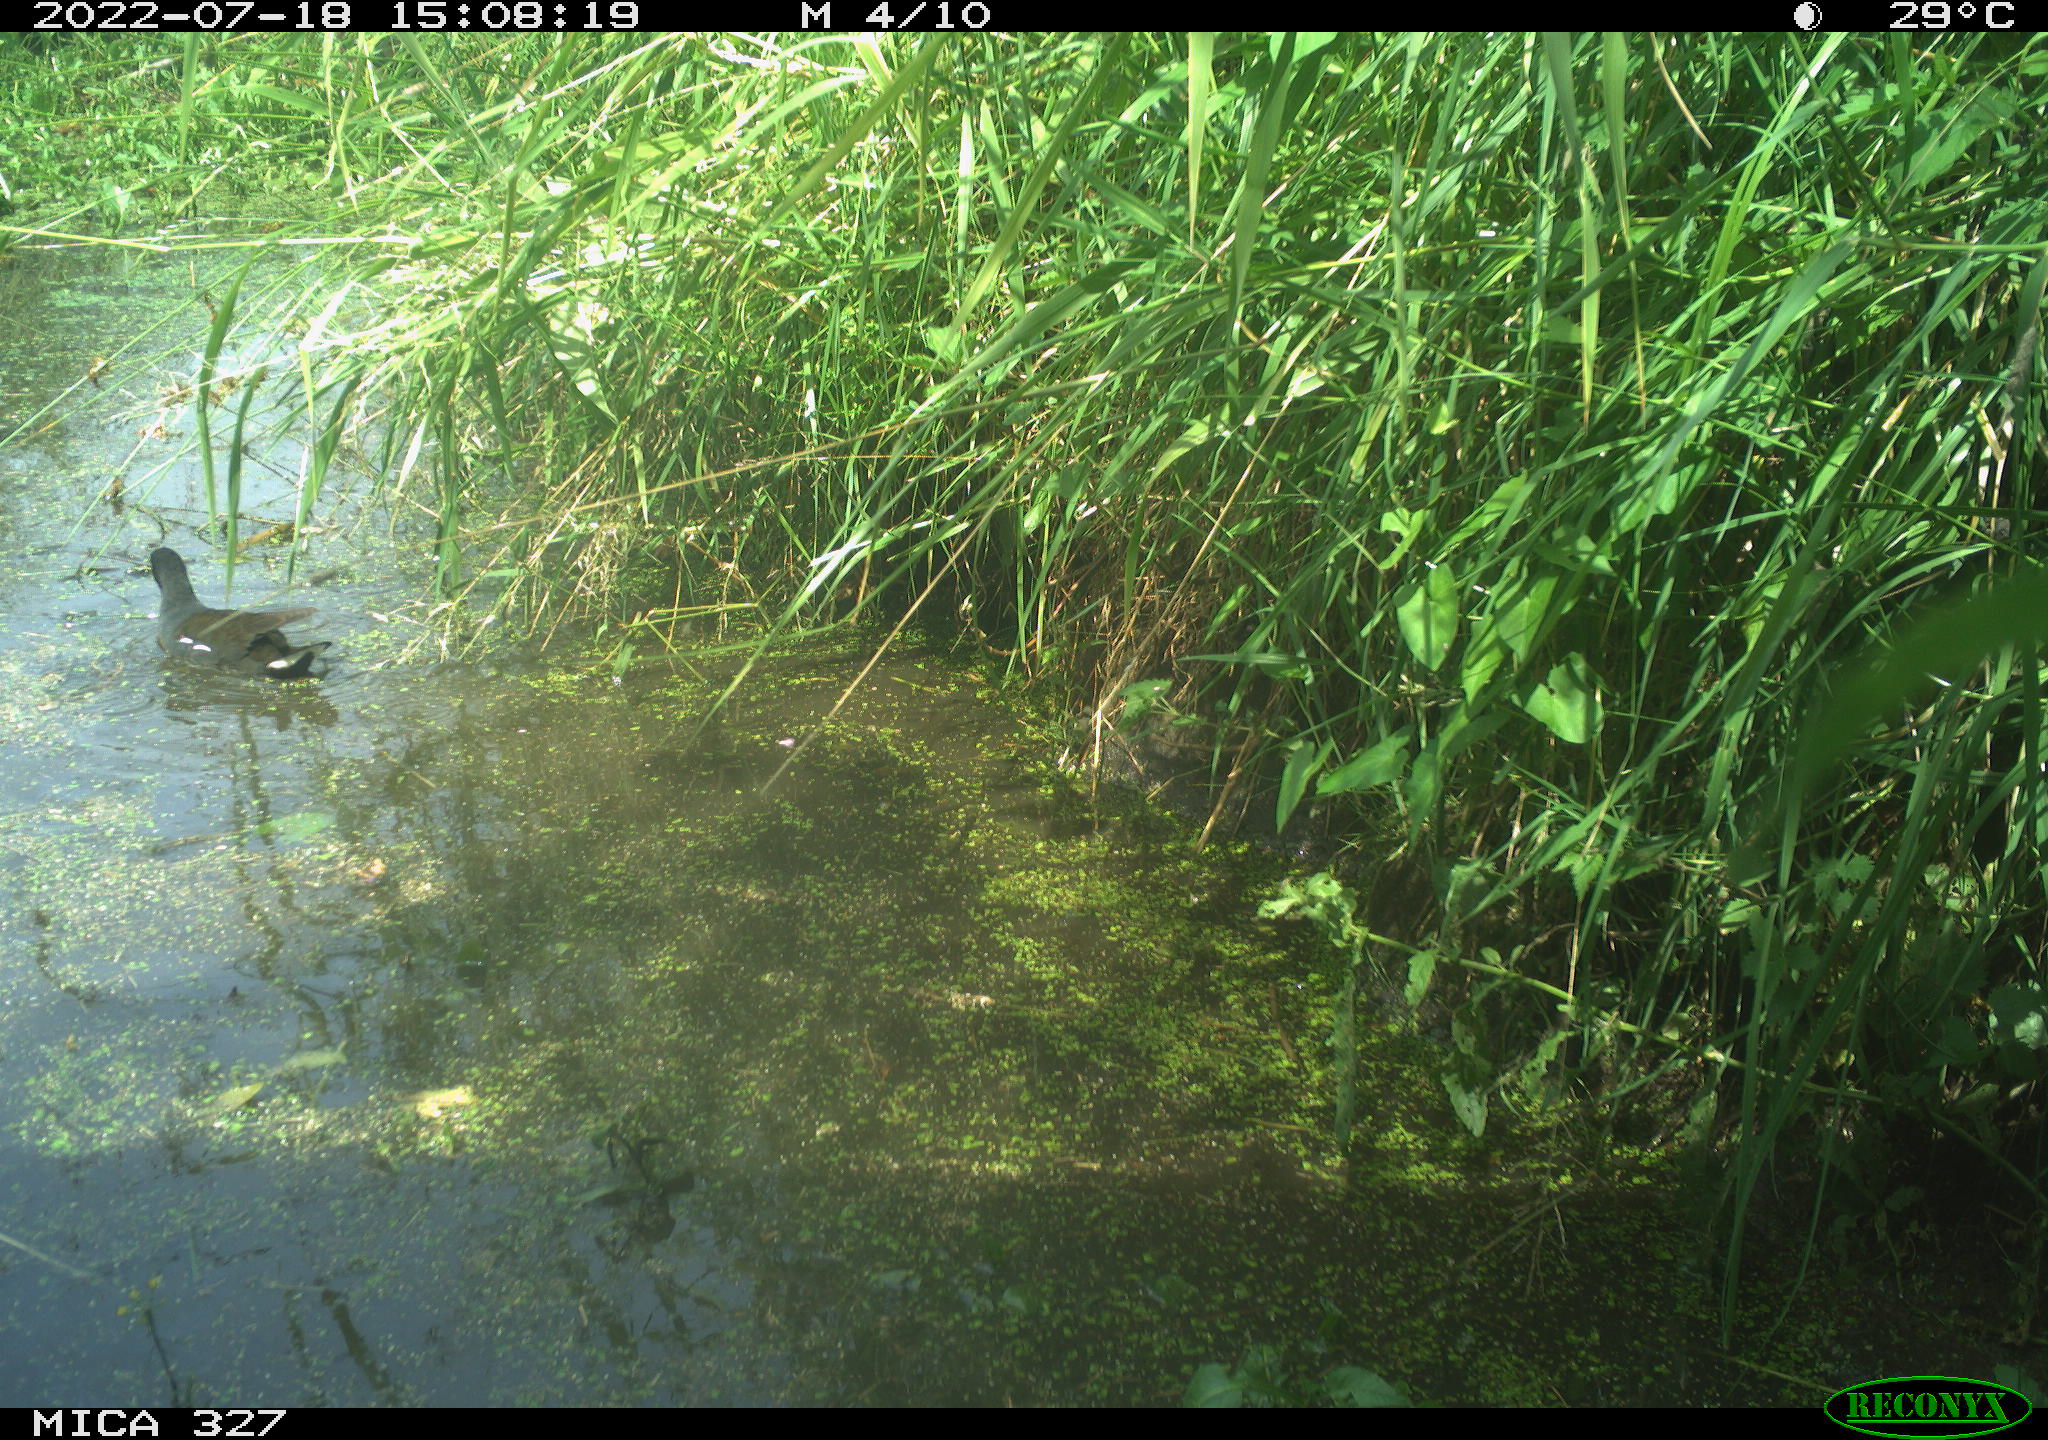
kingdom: Animalia
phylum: Chordata
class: Aves
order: Gruiformes
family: Rallidae
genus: Gallinula
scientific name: Gallinula chloropus
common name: Common moorhen
